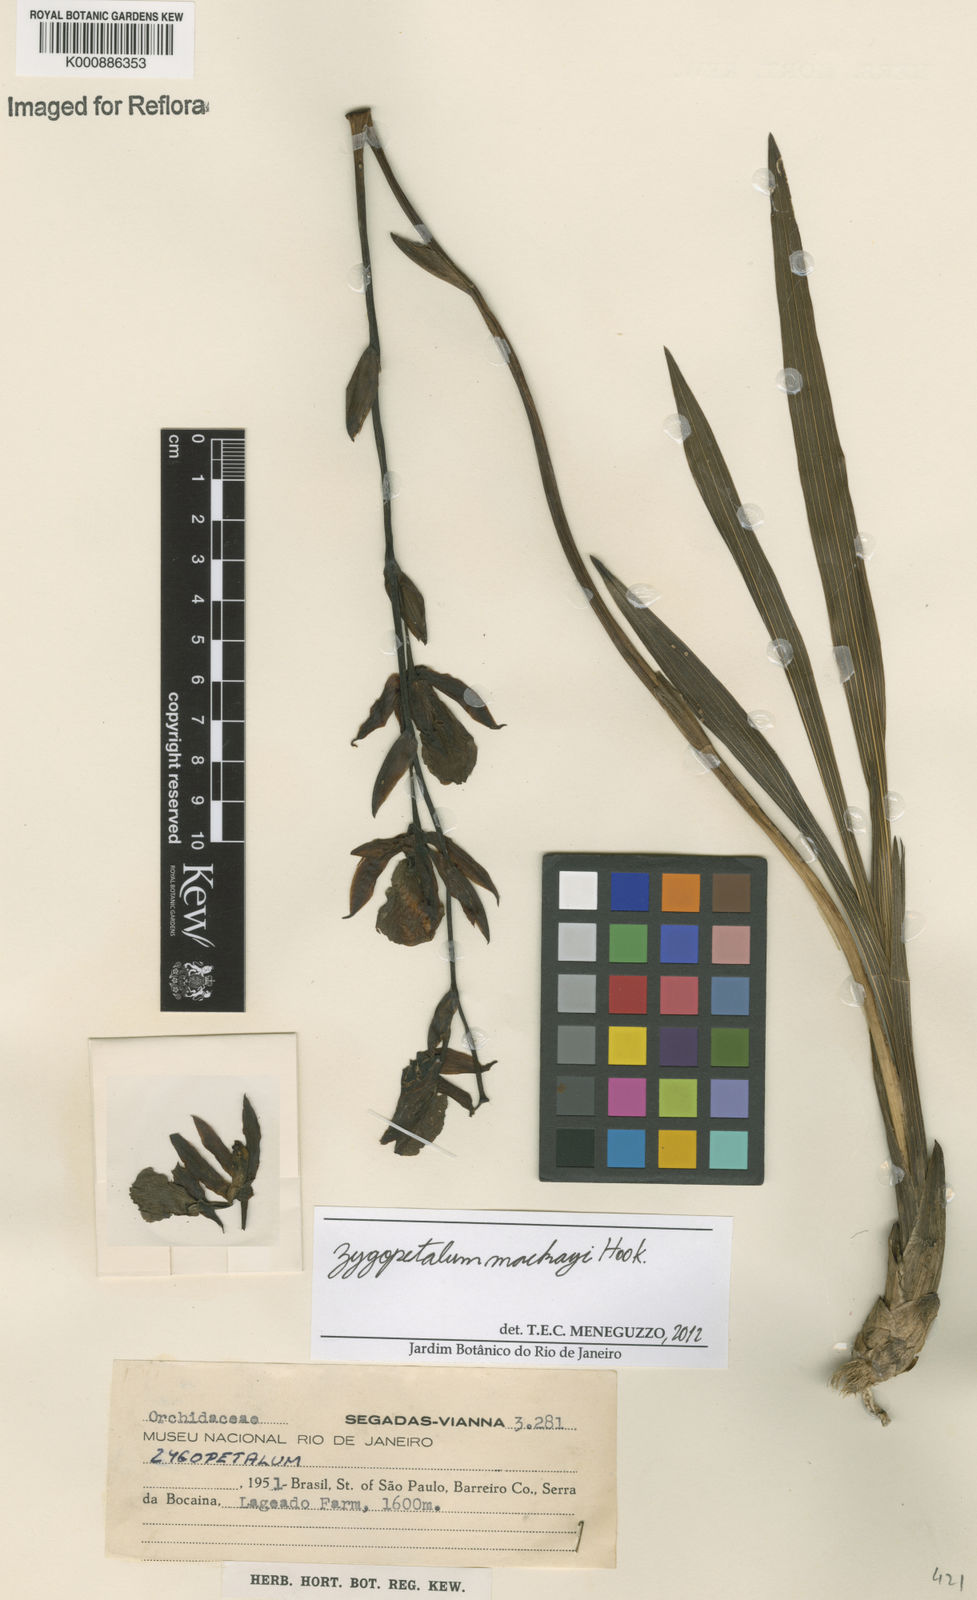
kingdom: Plantae
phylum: Tracheophyta
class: Liliopsida
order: Asparagales
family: Orchidaceae
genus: Zygopetalum
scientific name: Zygopetalum maculatum
